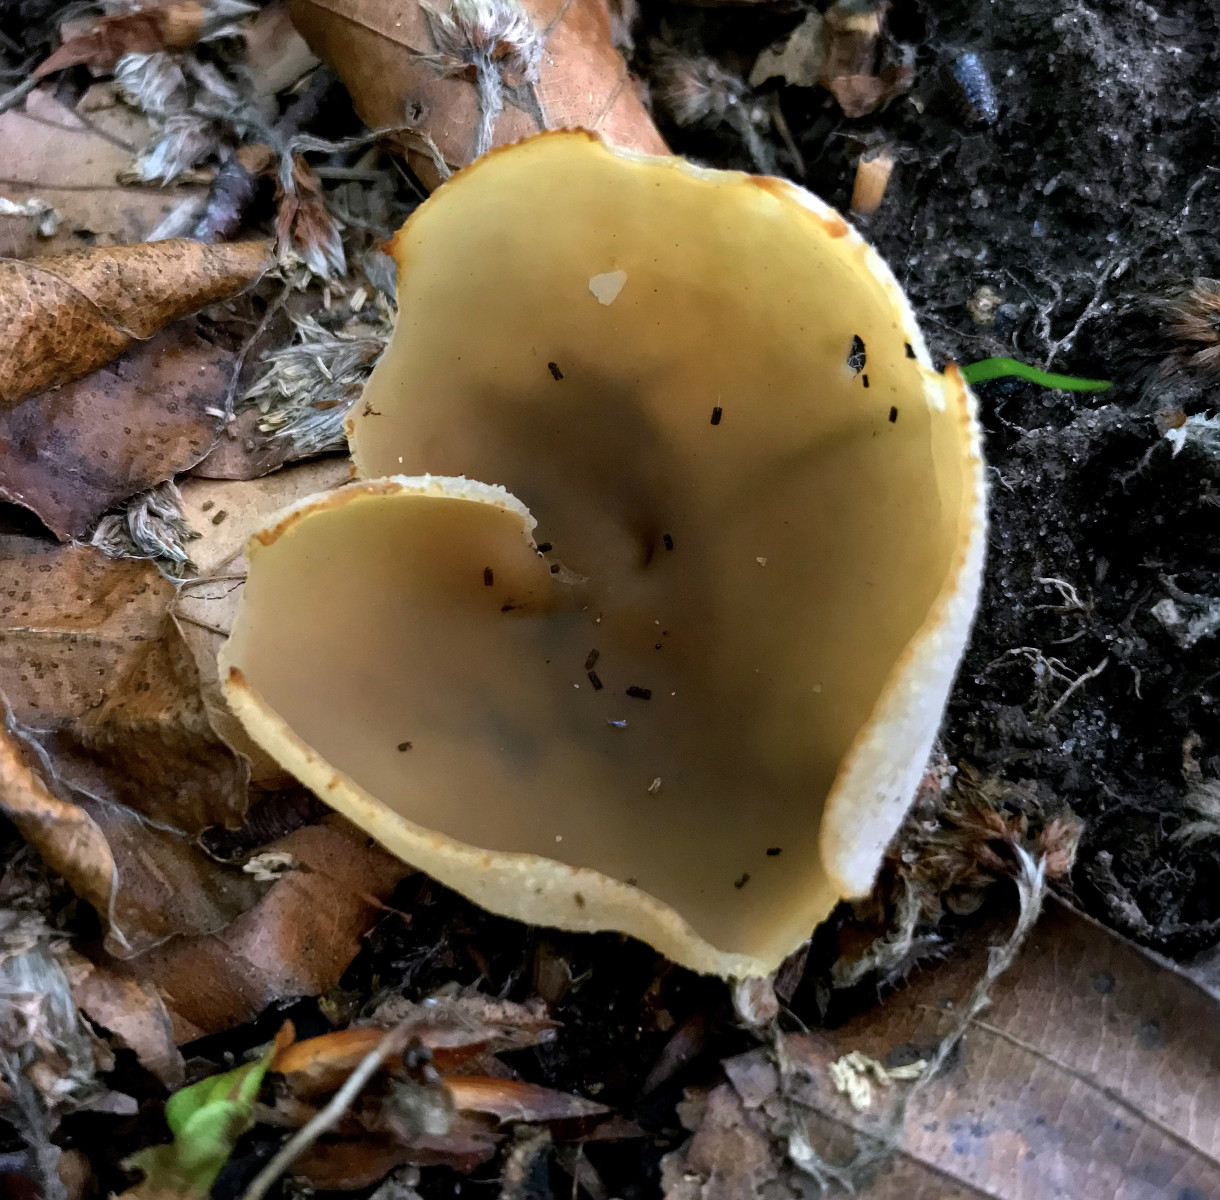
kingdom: Fungi
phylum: Ascomycota
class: Pezizomycetes
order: Pezizales
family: Pezizaceae
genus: Peziza
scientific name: Peziza
